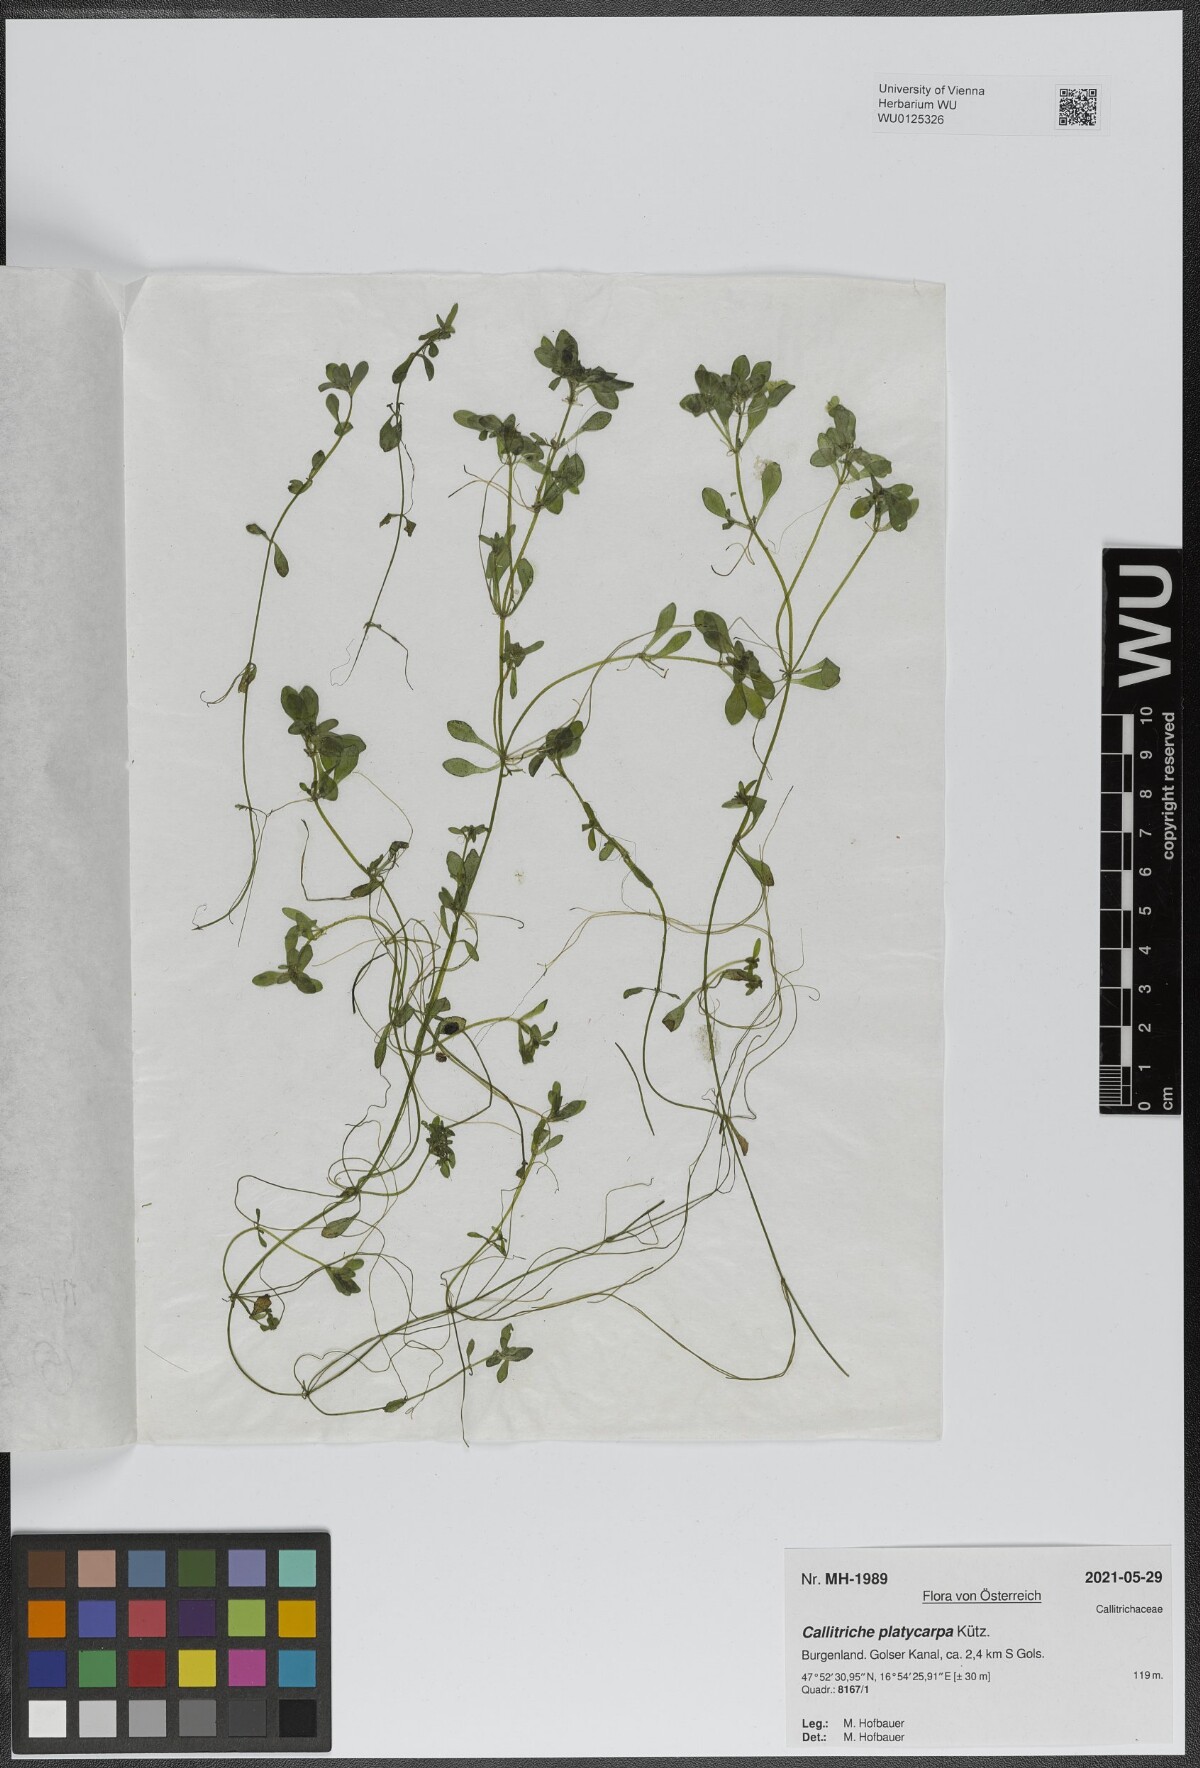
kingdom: Plantae
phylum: Tracheophyta
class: Magnoliopsida
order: Lamiales
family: Plantaginaceae
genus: Callitriche
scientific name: Callitriche platycarpa
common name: Various-leaved water-starwort
